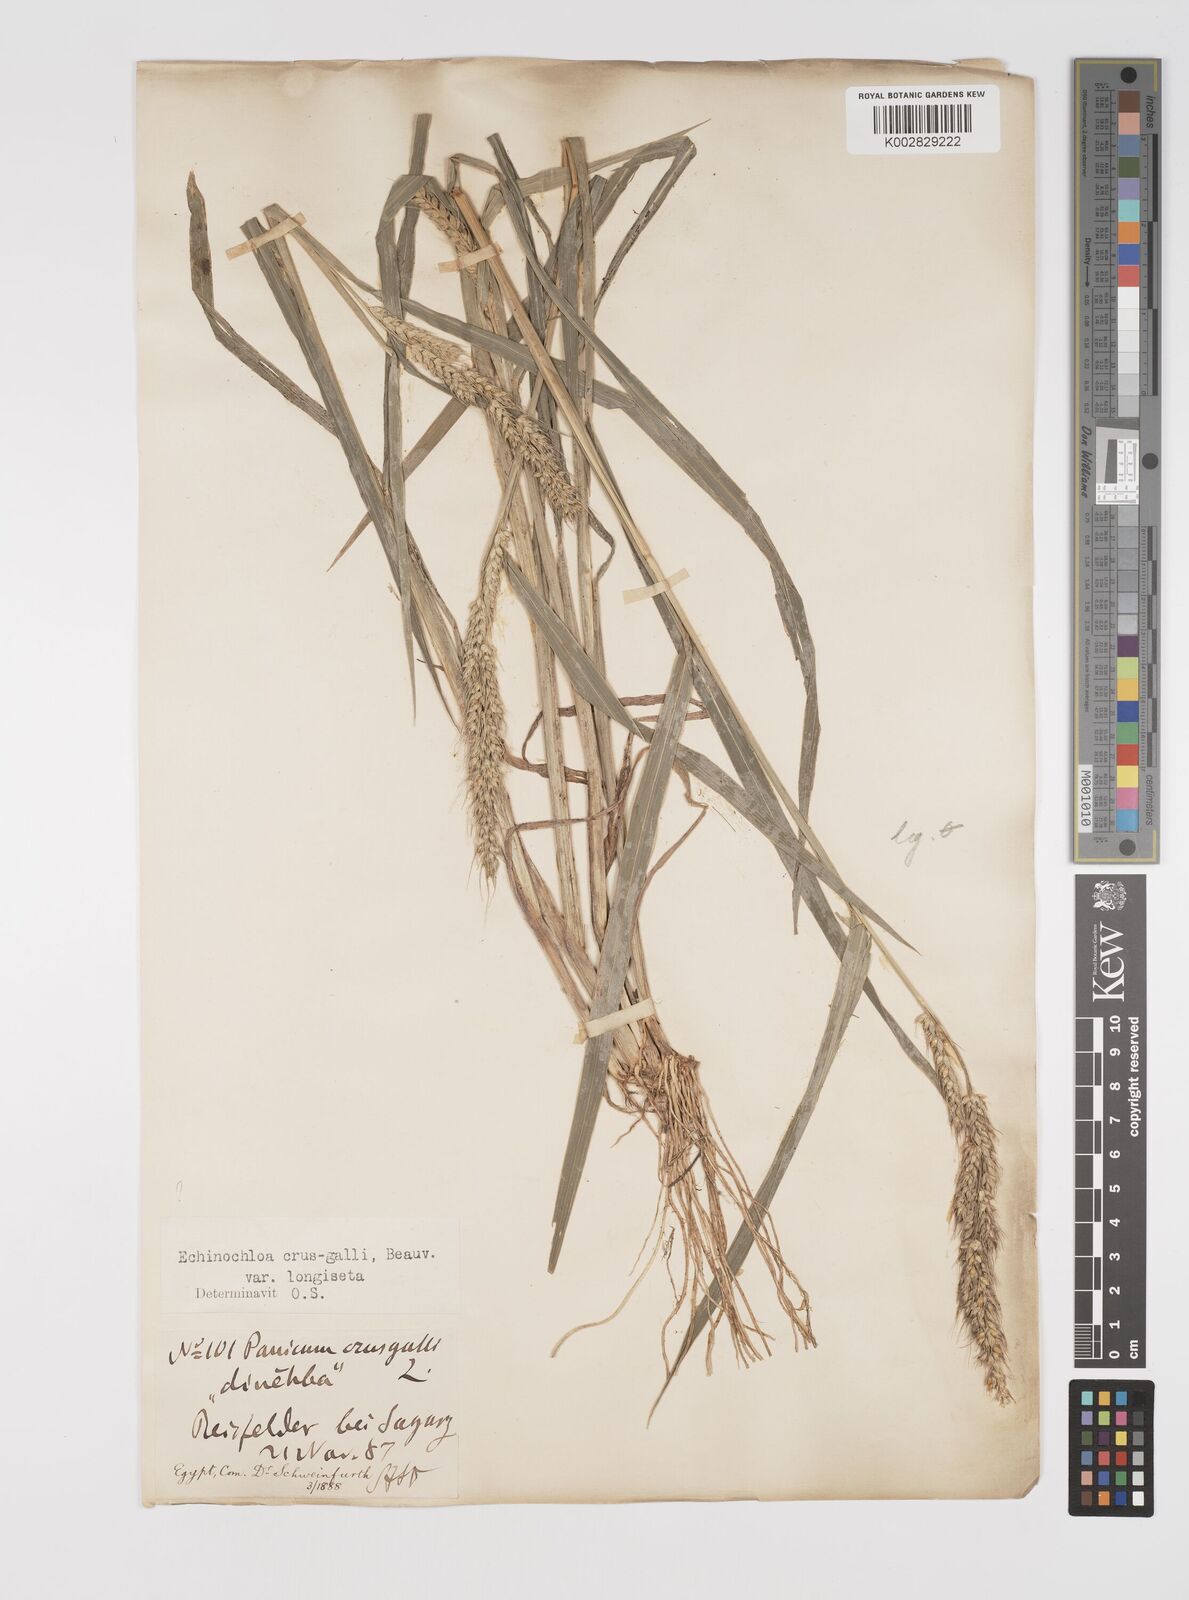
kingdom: Plantae
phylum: Tracheophyta
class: Liliopsida
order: Poales
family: Poaceae
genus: Echinochloa
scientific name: Echinochloa crus-galli
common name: Cockspur
